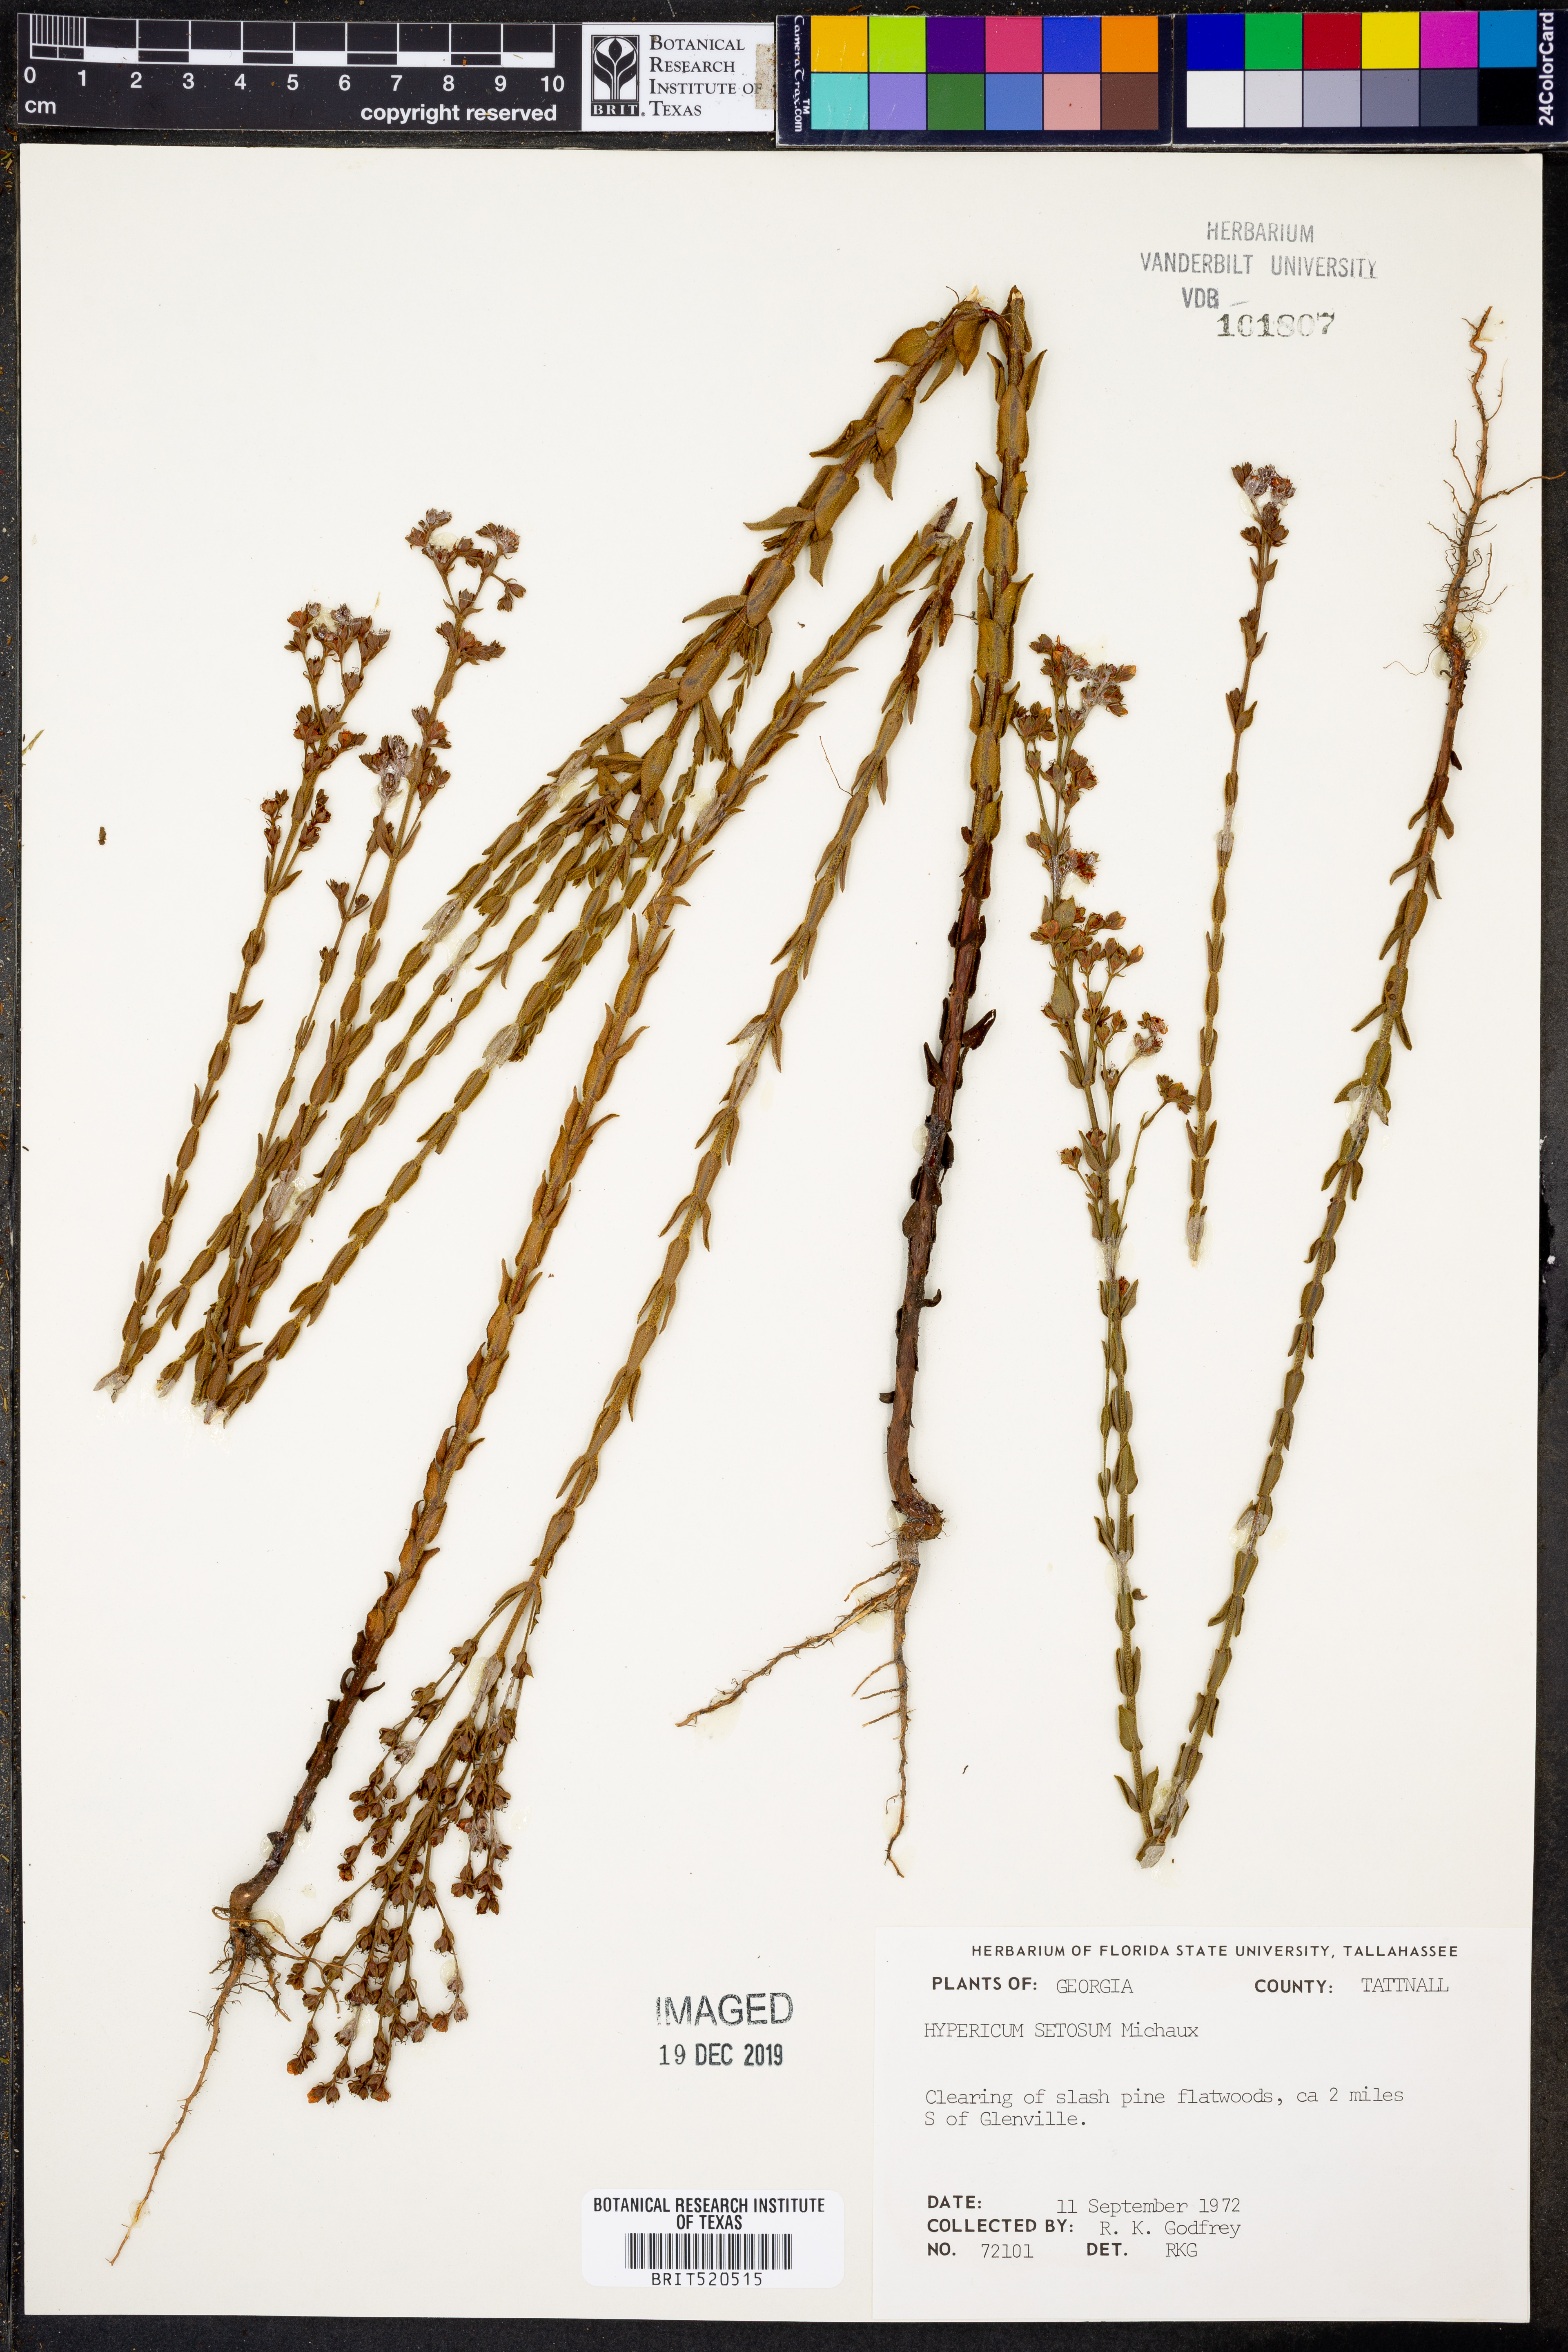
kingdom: Plantae
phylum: Tracheophyta
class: Magnoliopsida
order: Malpighiales
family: Hypericaceae
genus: Hypericum
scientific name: Hypericum setosum
